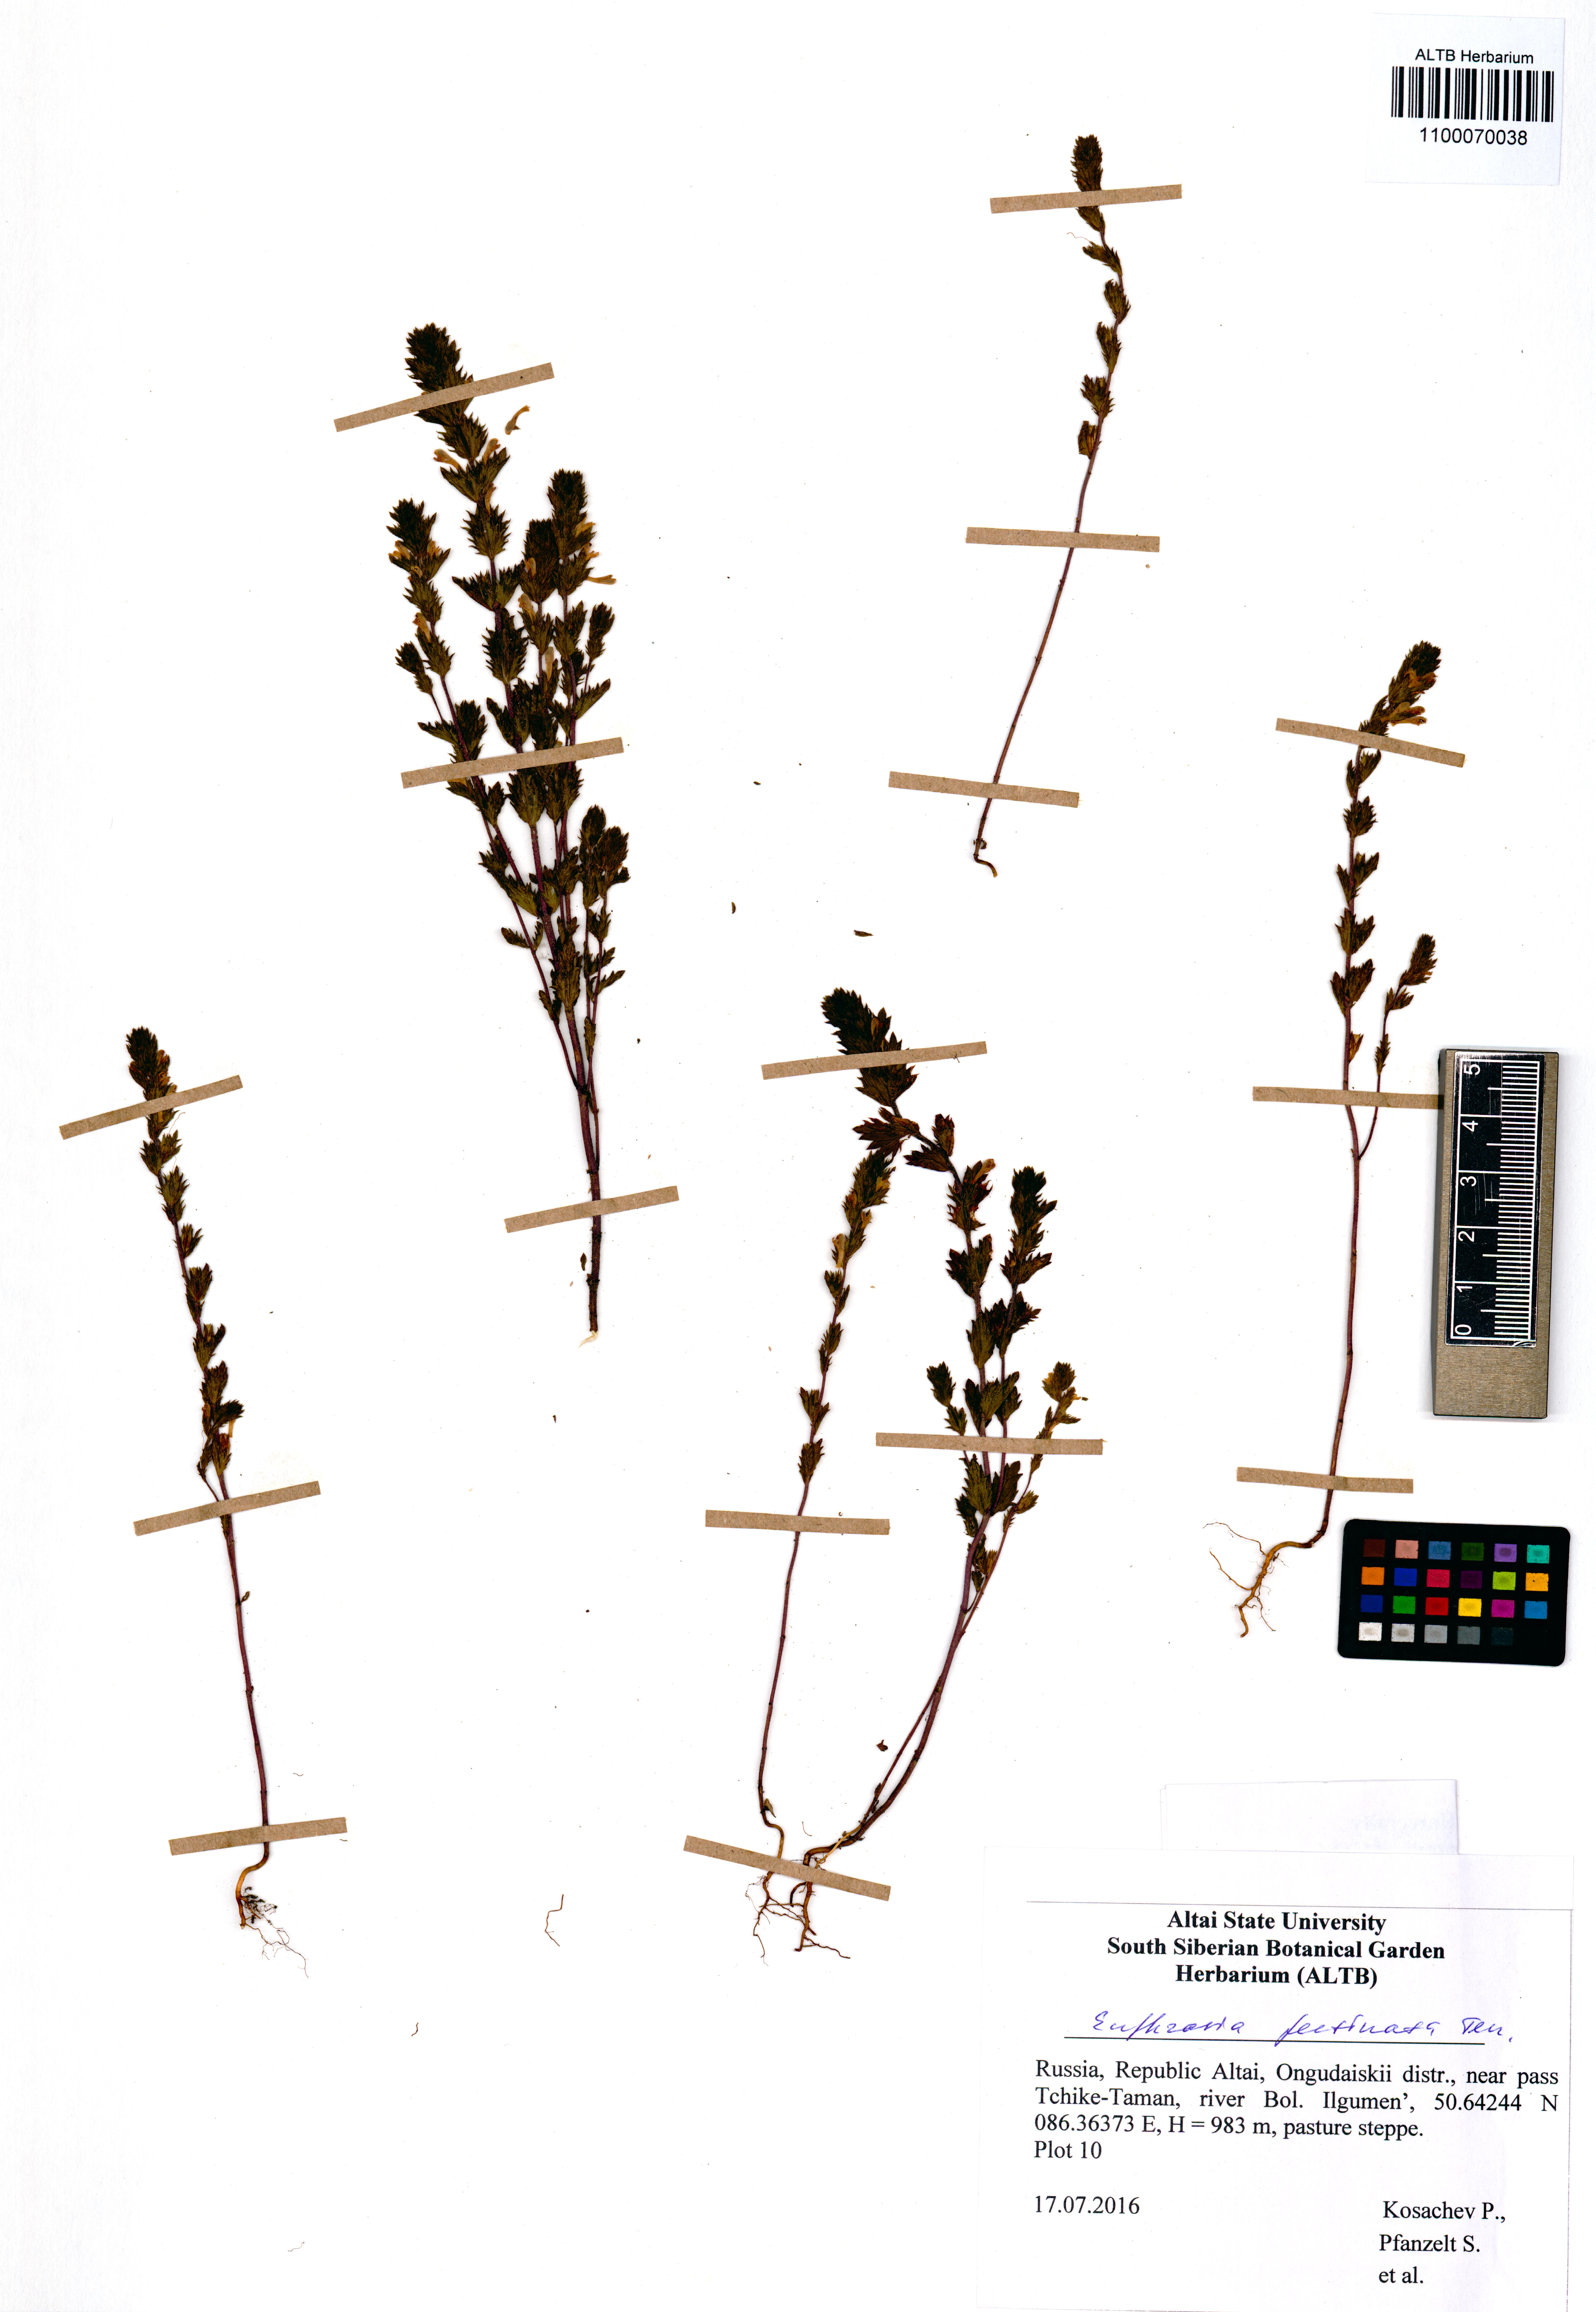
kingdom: Plantae
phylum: Tracheophyta
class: Magnoliopsida
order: Lamiales
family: Orobanchaceae
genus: Euphrasia
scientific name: Euphrasia pectinata
